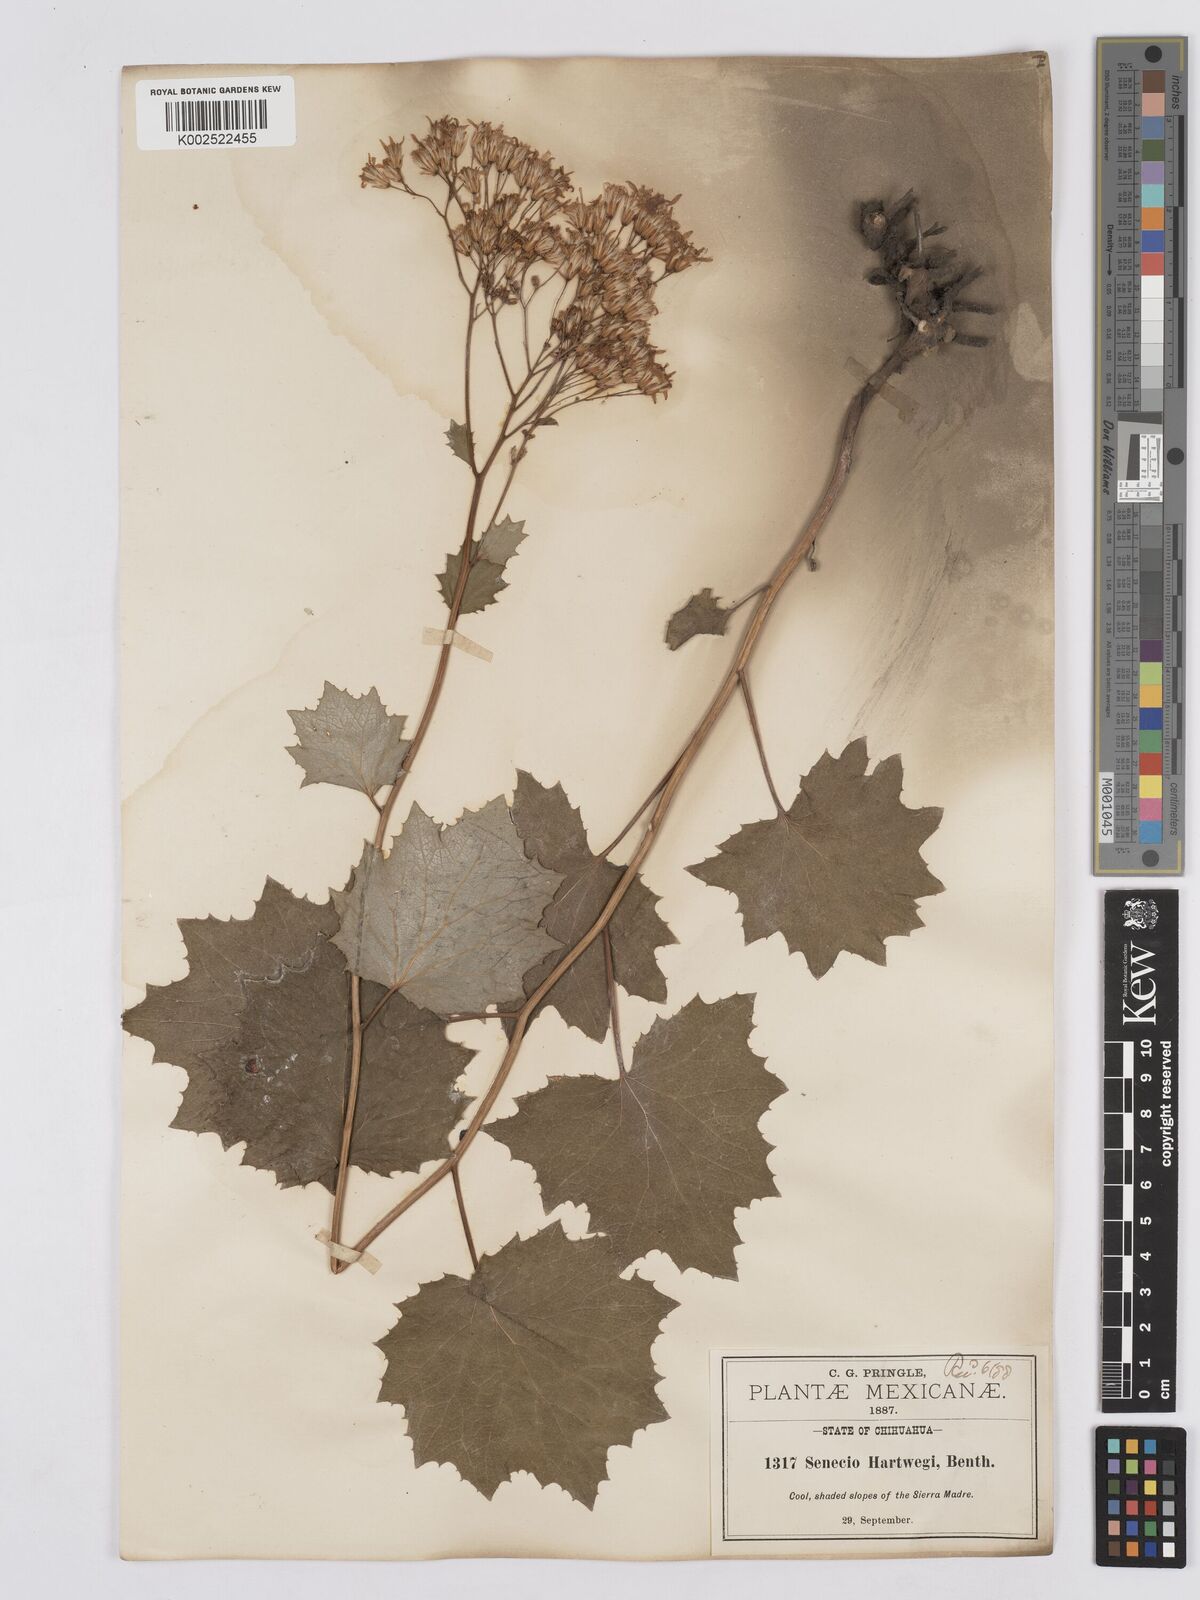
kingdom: Plantae
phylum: Tracheophyta
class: Magnoliopsida
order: Asterales
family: Asteraceae
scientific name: Asteraceae
